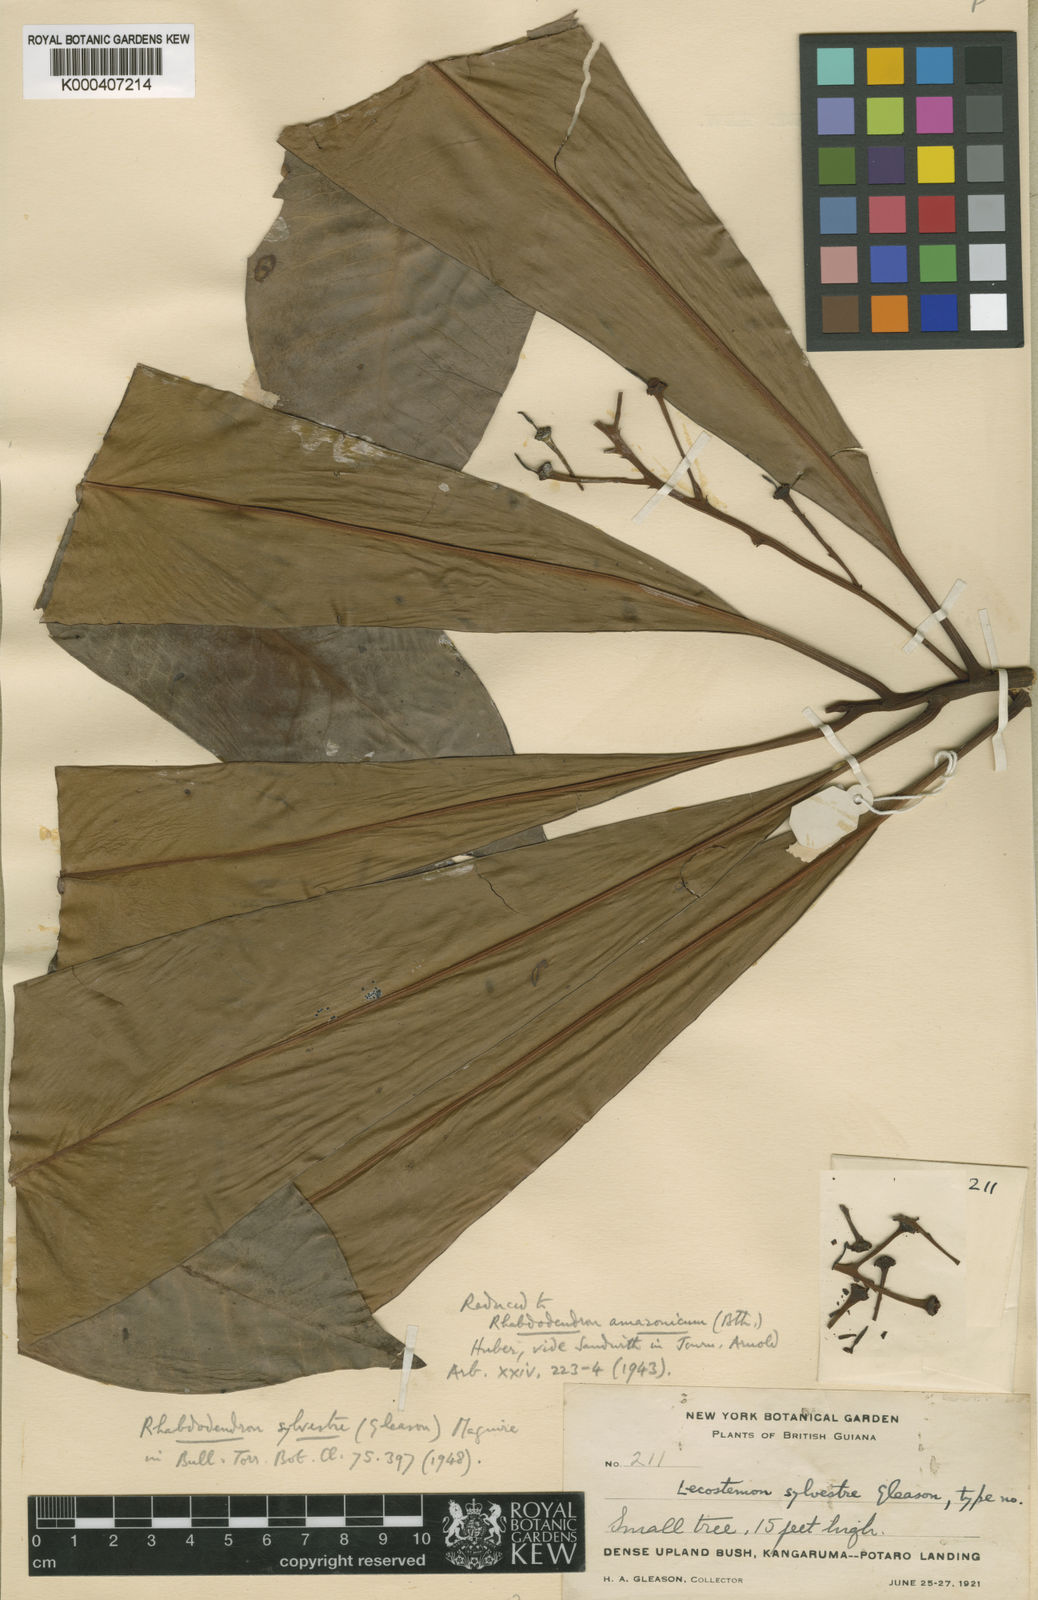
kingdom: Plantae
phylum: Tracheophyta
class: Magnoliopsida
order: Caryophyllales
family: Rhabdodendraceae
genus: Rhabdodendron
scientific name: Rhabdodendron amazonicum
